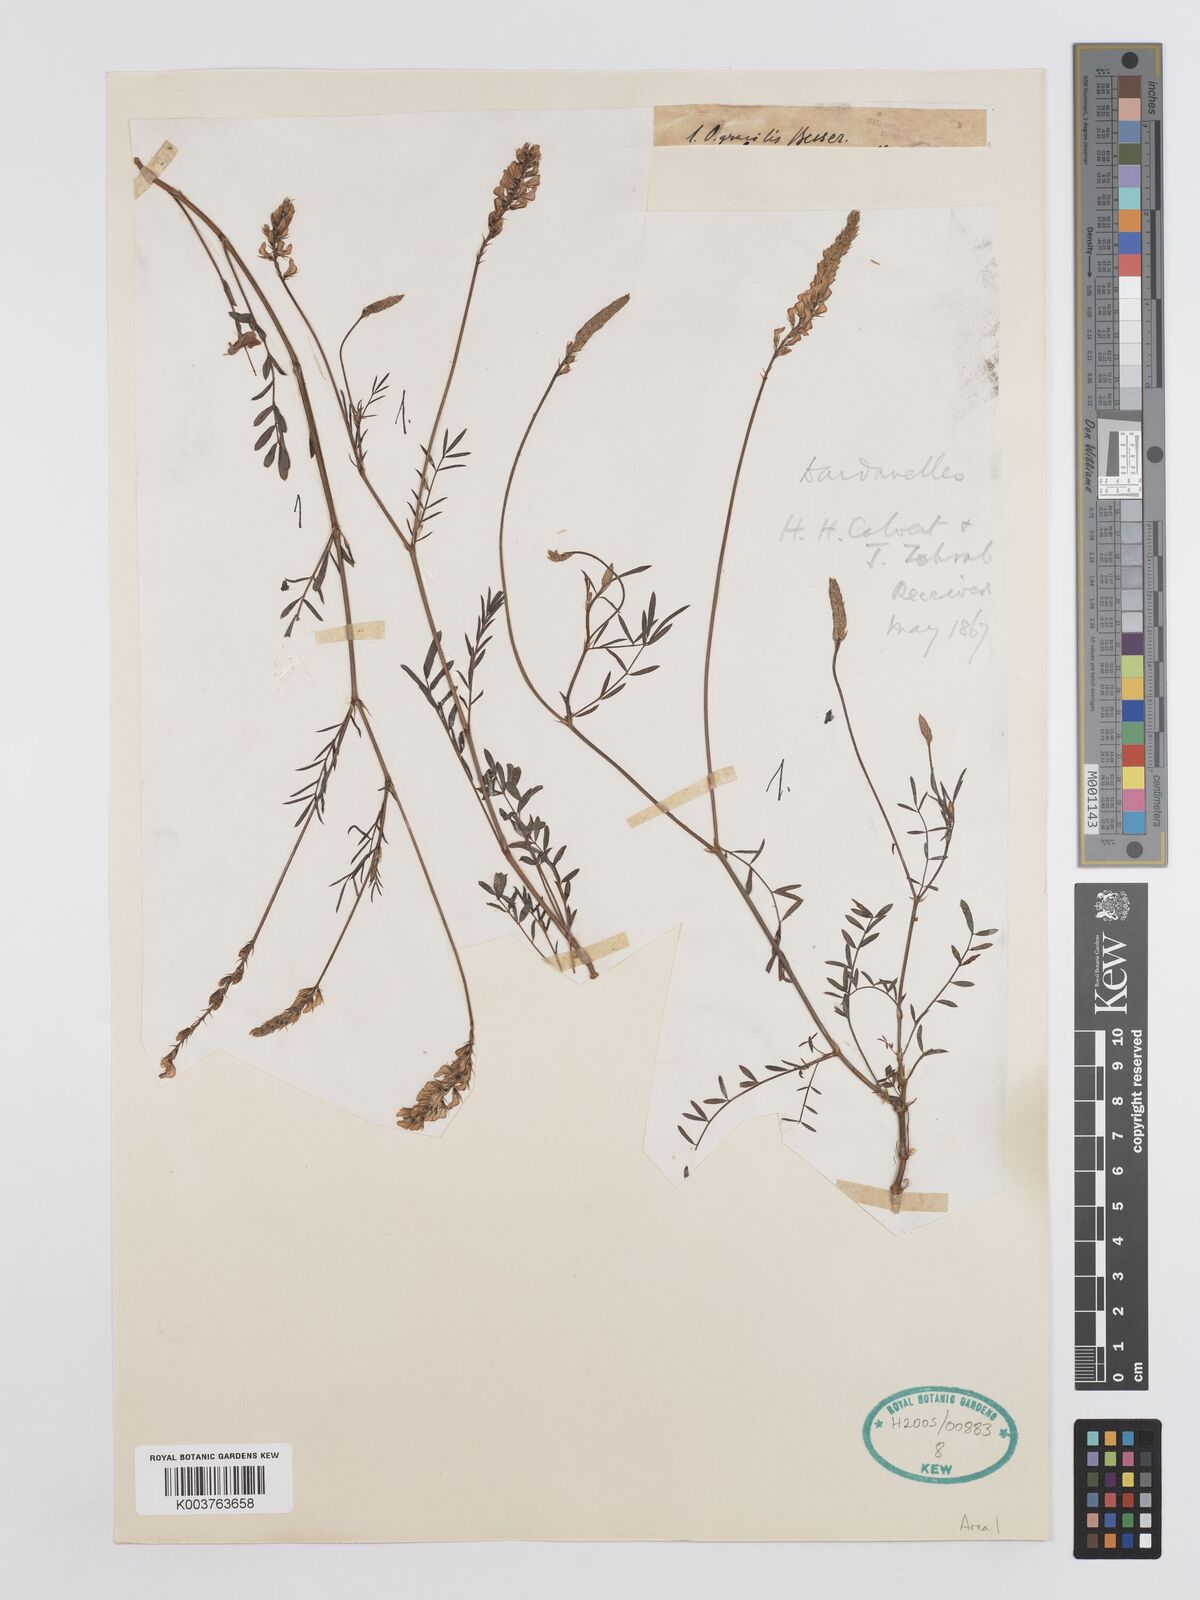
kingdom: Plantae
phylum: Tracheophyta
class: Magnoliopsida
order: Fabales
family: Fabaceae
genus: Onobrychis
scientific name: Onobrychis gracilis
